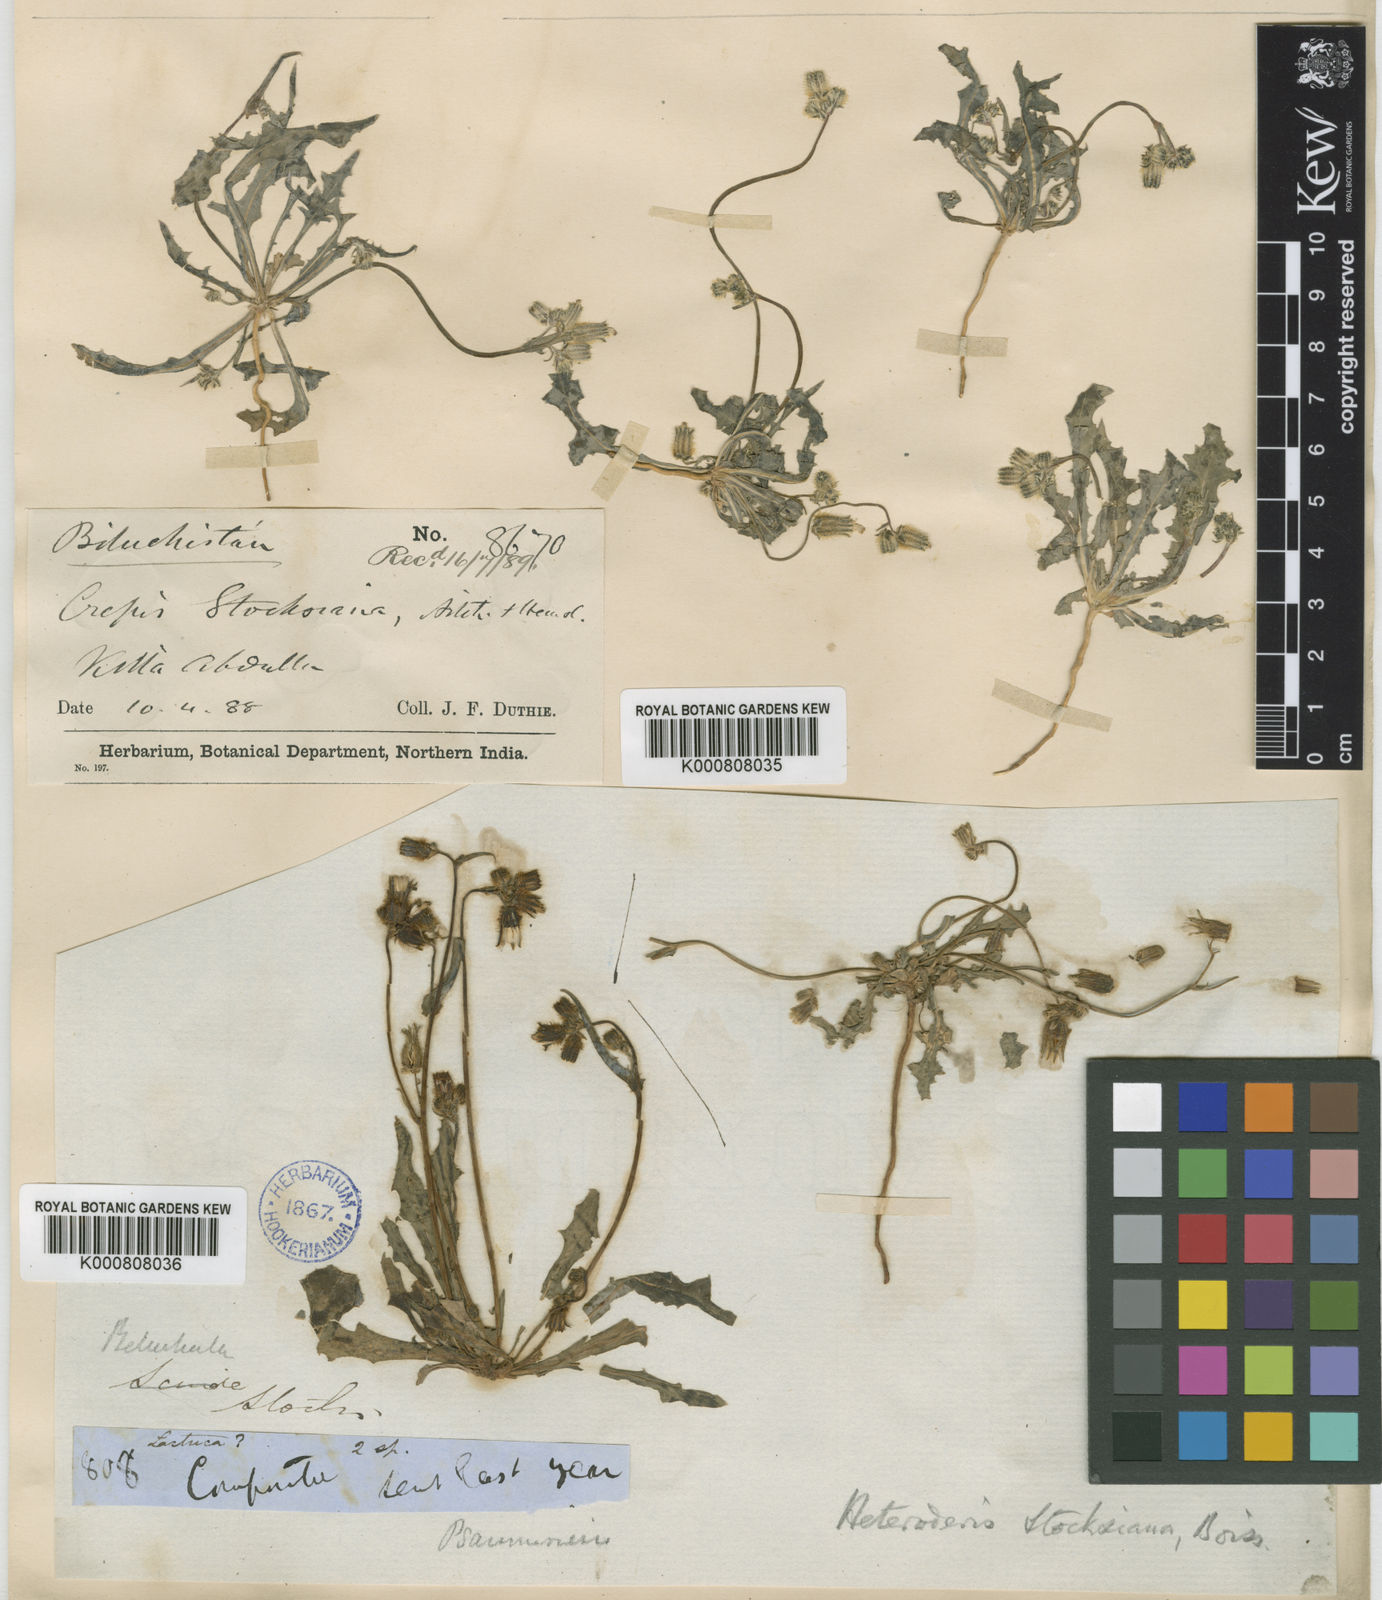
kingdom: Plantae
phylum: Tracheophyta
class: Magnoliopsida
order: Asterales
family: Asteraceae
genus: Heteroderis
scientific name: Heteroderis pusilla
